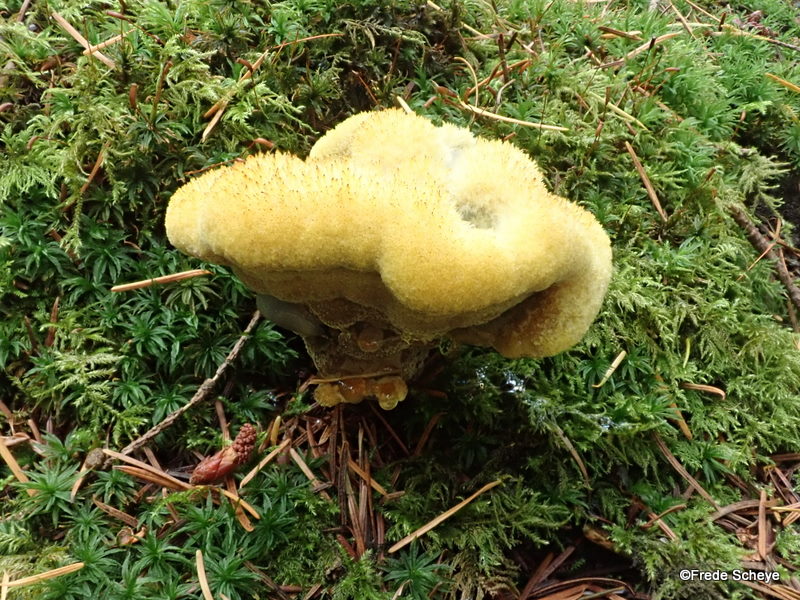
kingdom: Fungi
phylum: Basidiomycota
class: Agaricomycetes
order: Polyporales
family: Laetiporaceae
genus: Phaeolus
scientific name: Phaeolus schweinitzii
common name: brunporesvamp
